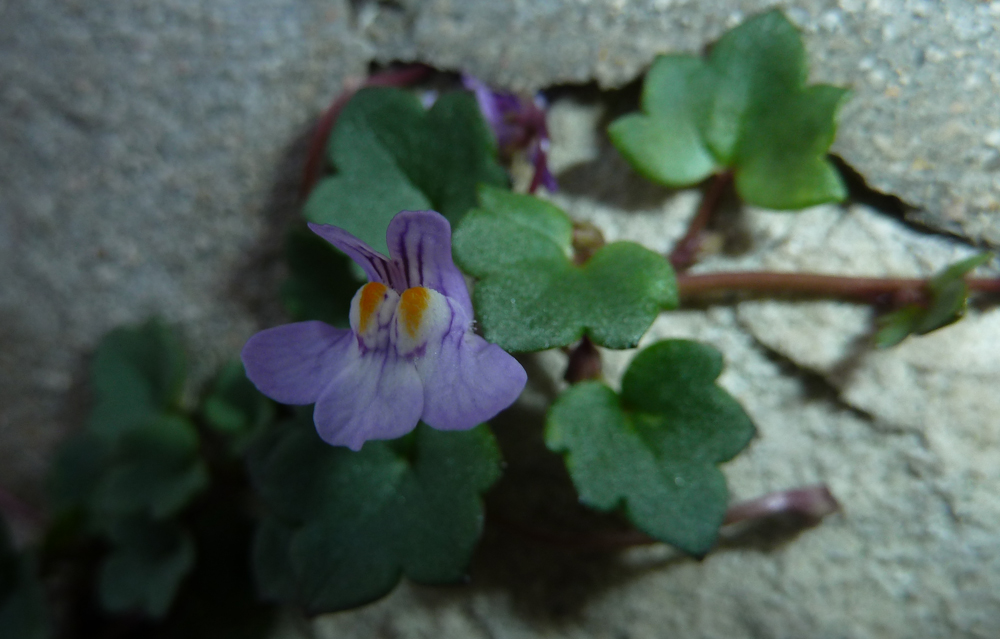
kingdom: Plantae
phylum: Tracheophyta
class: Magnoliopsida
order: Lamiales
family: Plantaginaceae
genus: Cymbalaria
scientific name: Cymbalaria muralis
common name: Ivy-leaved toadflax
